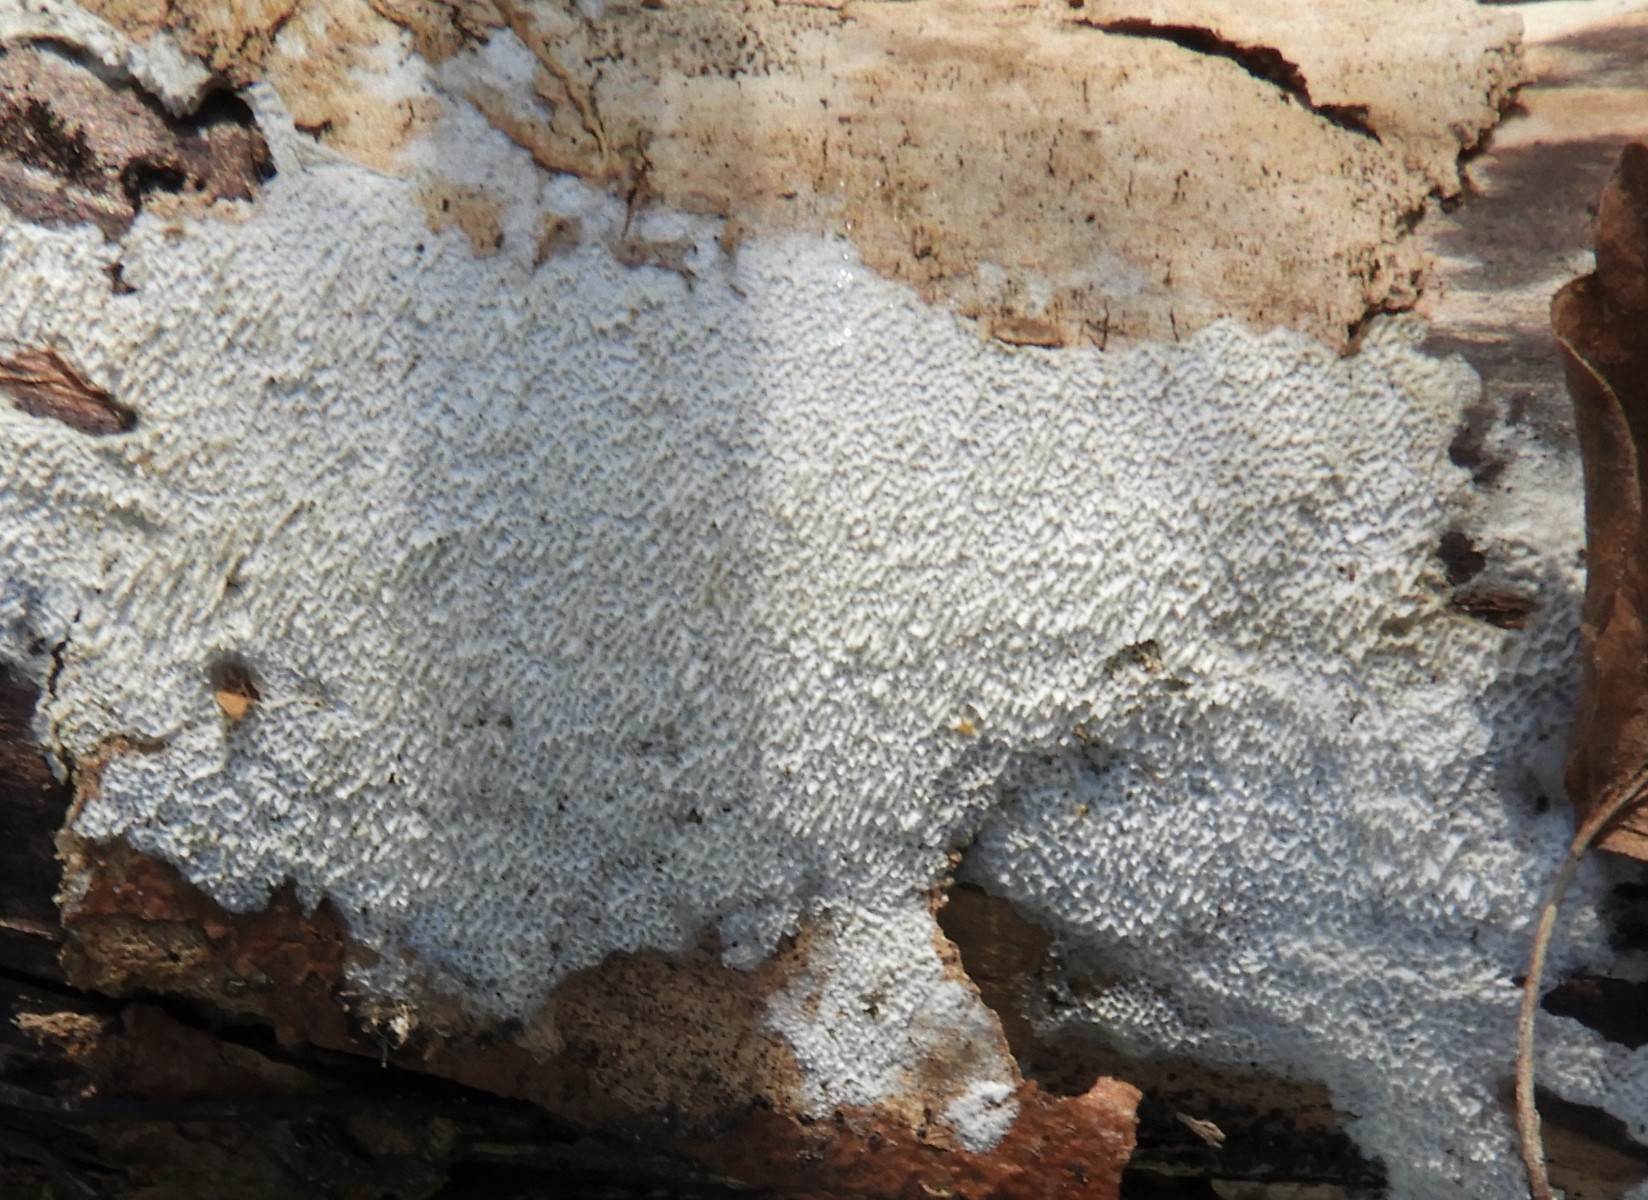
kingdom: Fungi
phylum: Basidiomycota
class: Agaricomycetes
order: Hymenochaetales
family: Schizoporaceae
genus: Xylodon
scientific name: Xylodon
